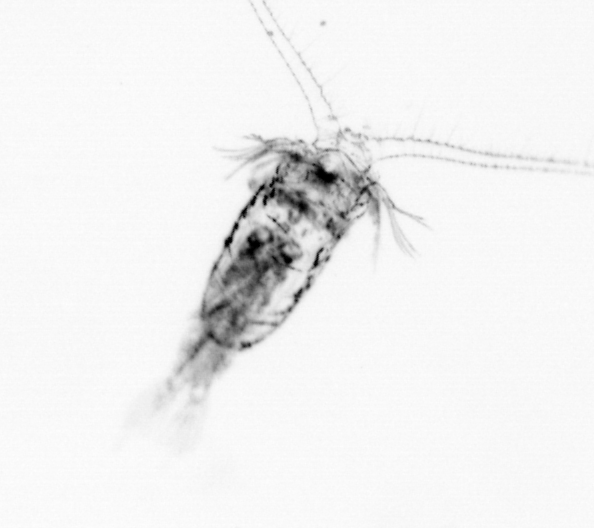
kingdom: Animalia
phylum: Arthropoda
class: Copepoda
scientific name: Copepoda
